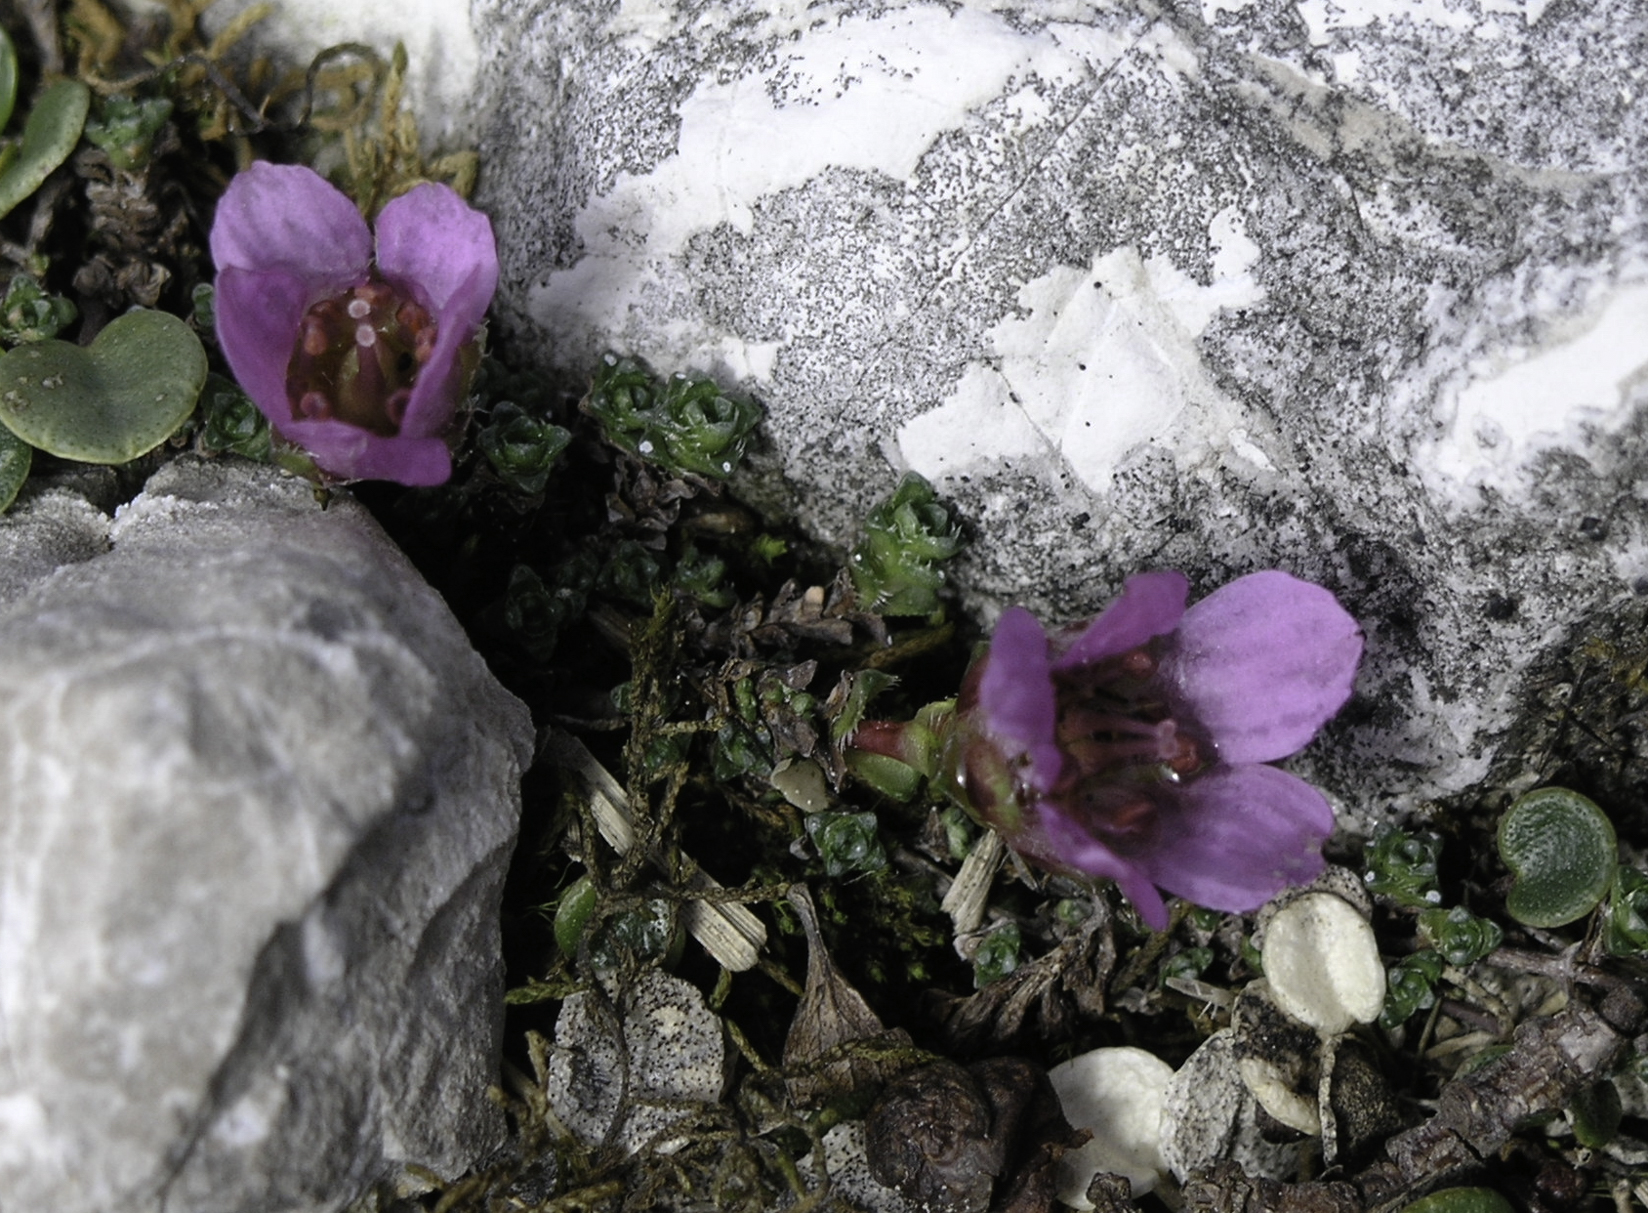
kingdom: Plantae
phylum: Tracheophyta
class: Magnoliopsida
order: Saxifragales
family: Saxifragaceae
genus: Saxifraga
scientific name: Saxifraga oppositifolia
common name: Purple saxifrage
